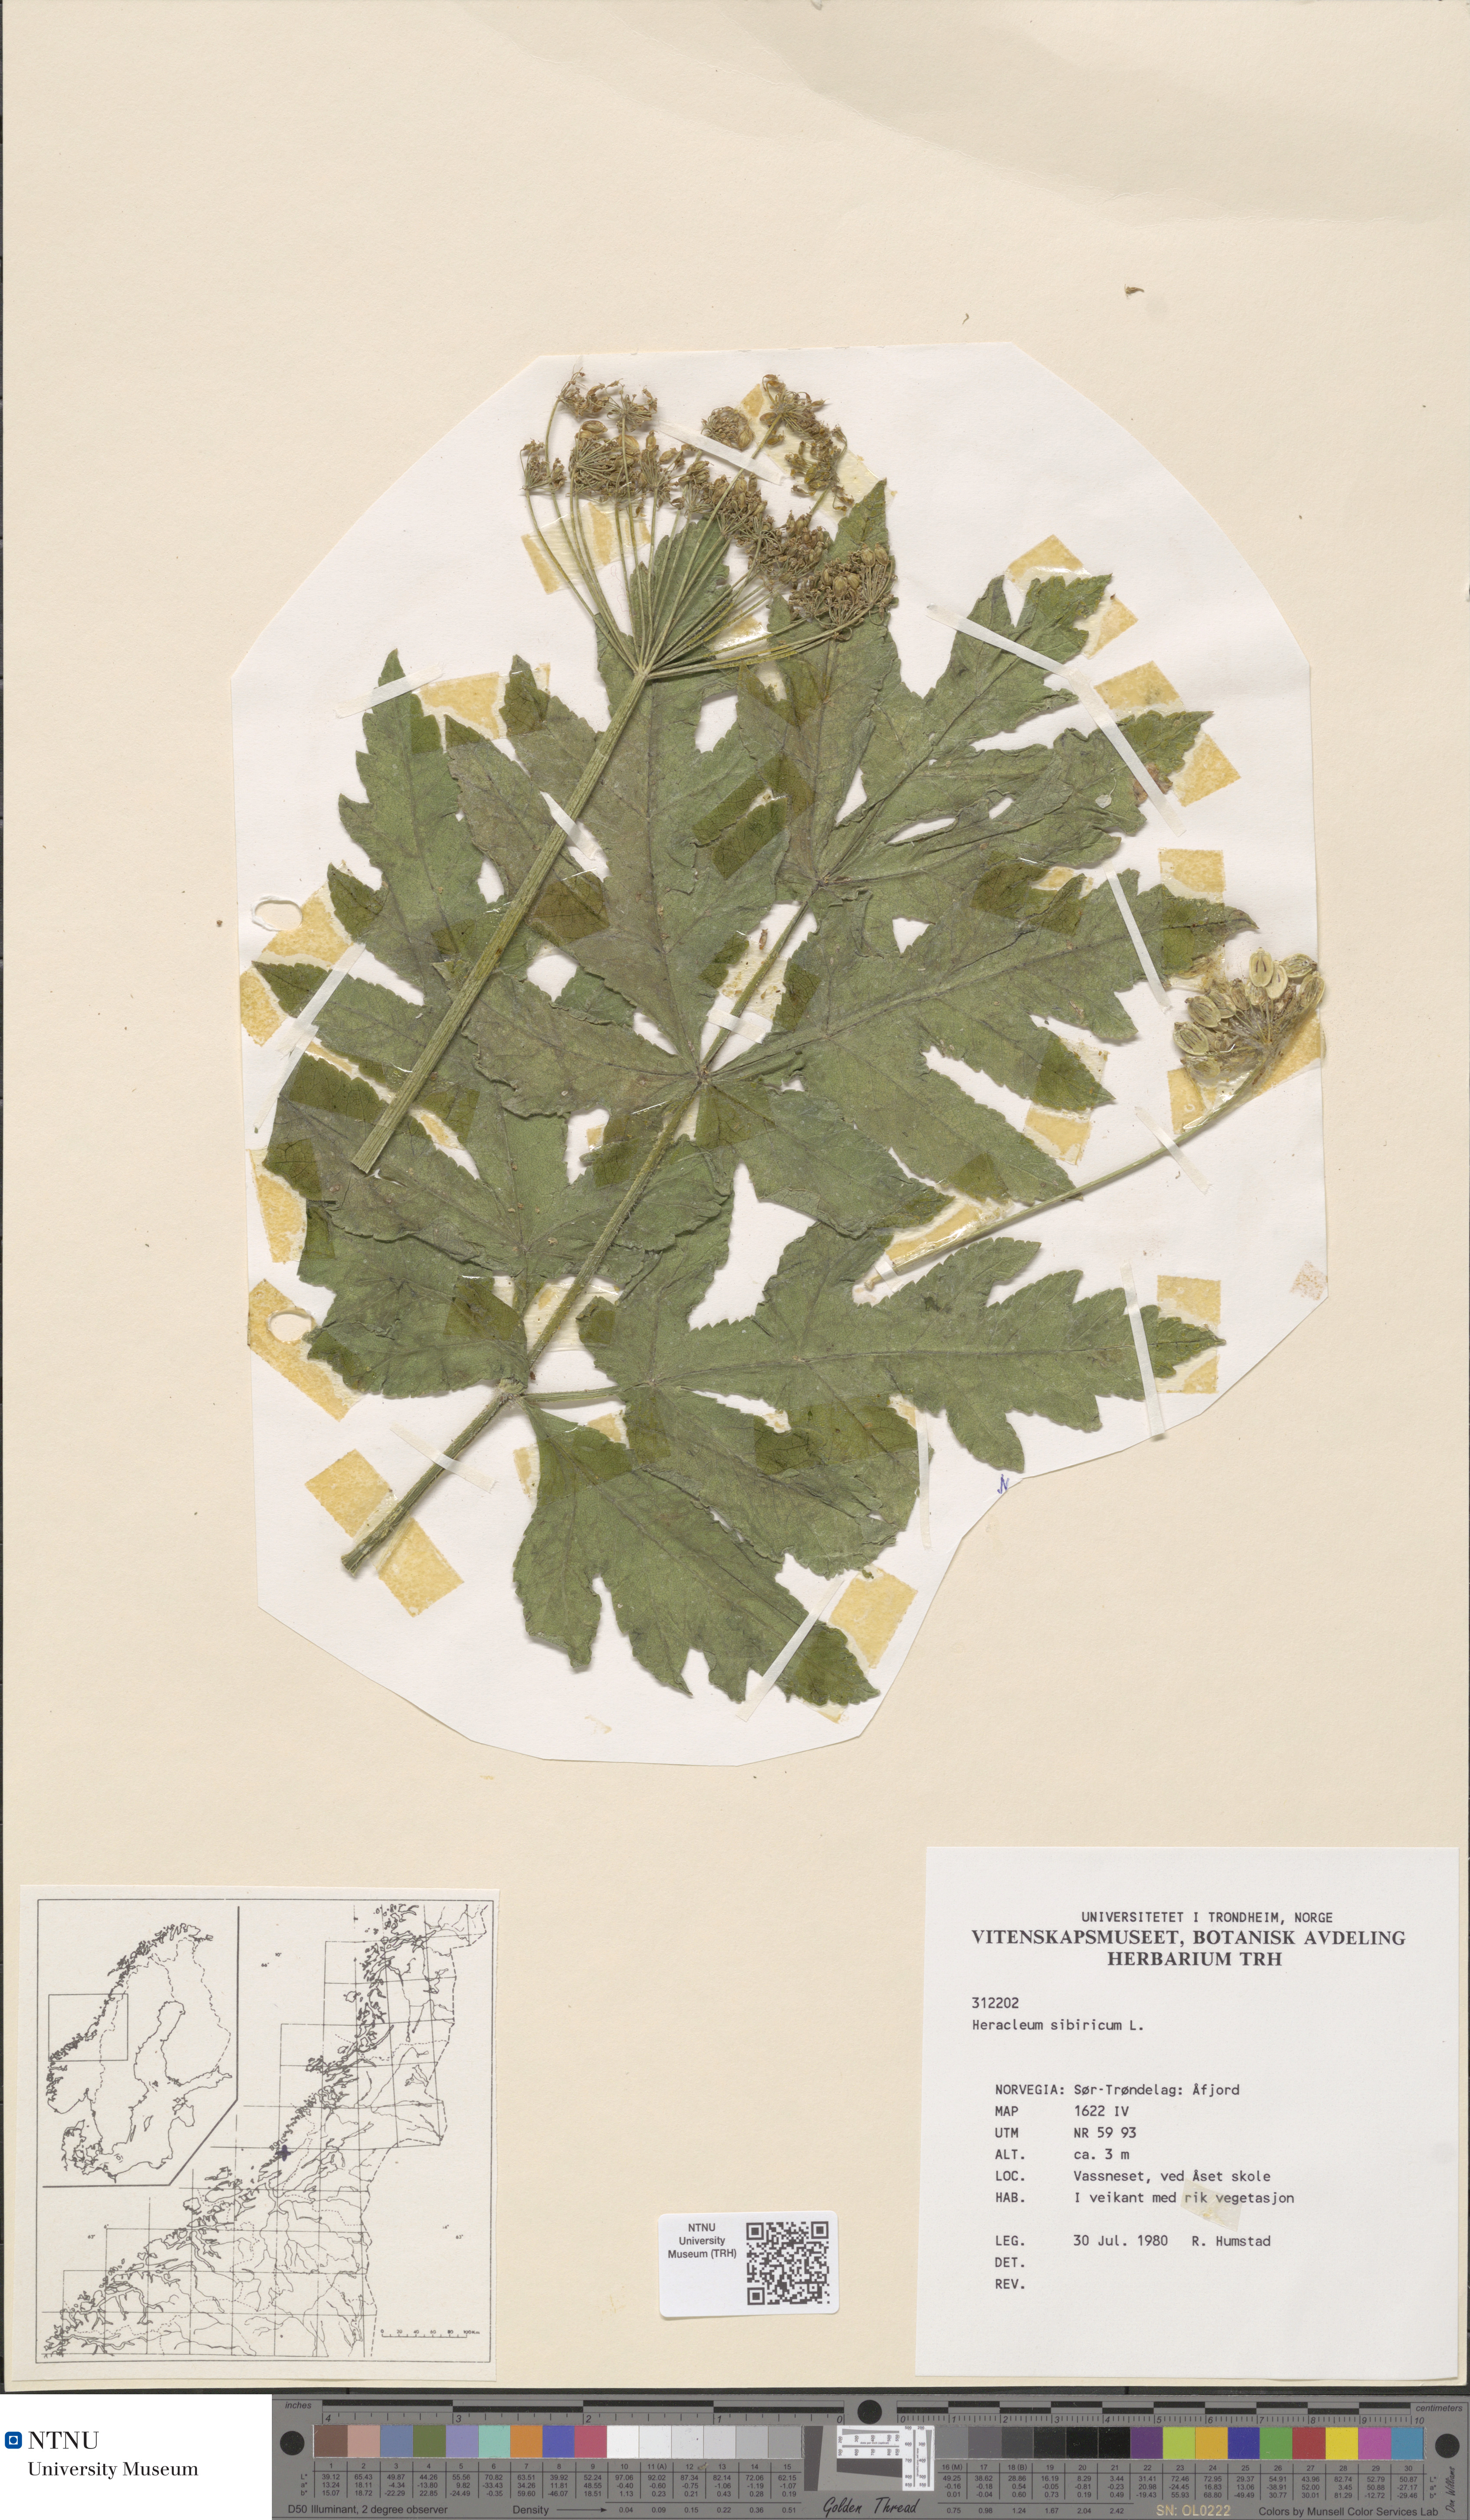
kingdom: Plantae
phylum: Tracheophyta
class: Magnoliopsida
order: Apiales
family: Apiaceae
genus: Heracleum
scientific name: Heracleum sphondylium
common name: Hogweed
